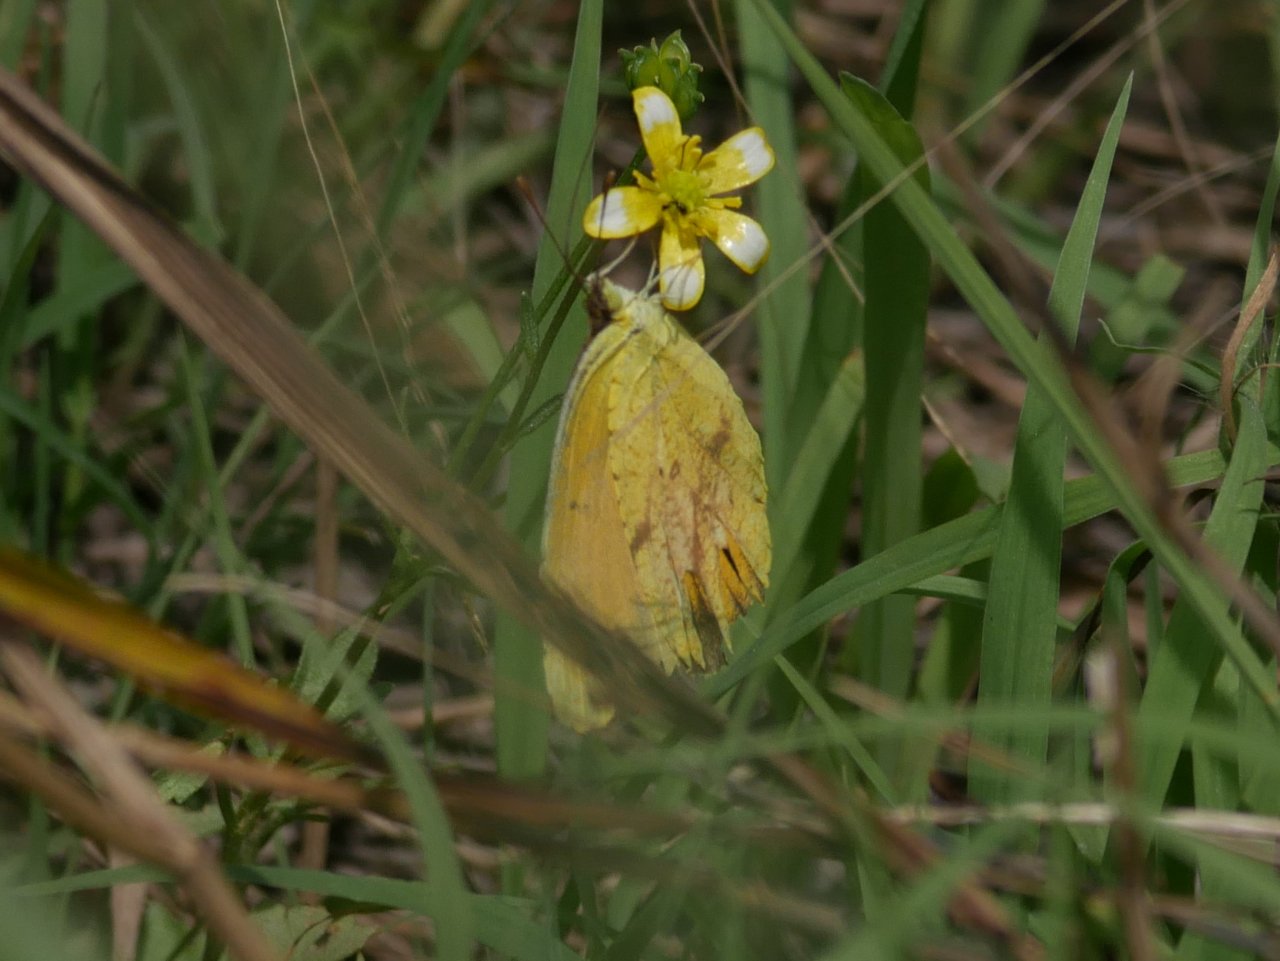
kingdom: Animalia
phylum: Arthropoda
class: Insecta
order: Lepidoptera
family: Pieridae
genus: Abaeis
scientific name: Abaeis nicippe
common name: Sleepy Orange
